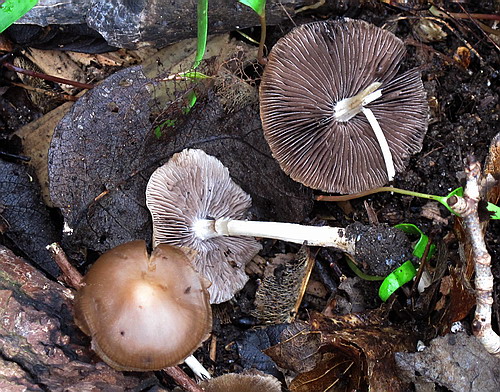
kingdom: Fungi
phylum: Basidiomycota
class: Agaricomycetes
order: Agaricales
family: Psathyrellaceae
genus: Psathyrella
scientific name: Psathyrella spadiceogrisea
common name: gråbrun mørkhat
